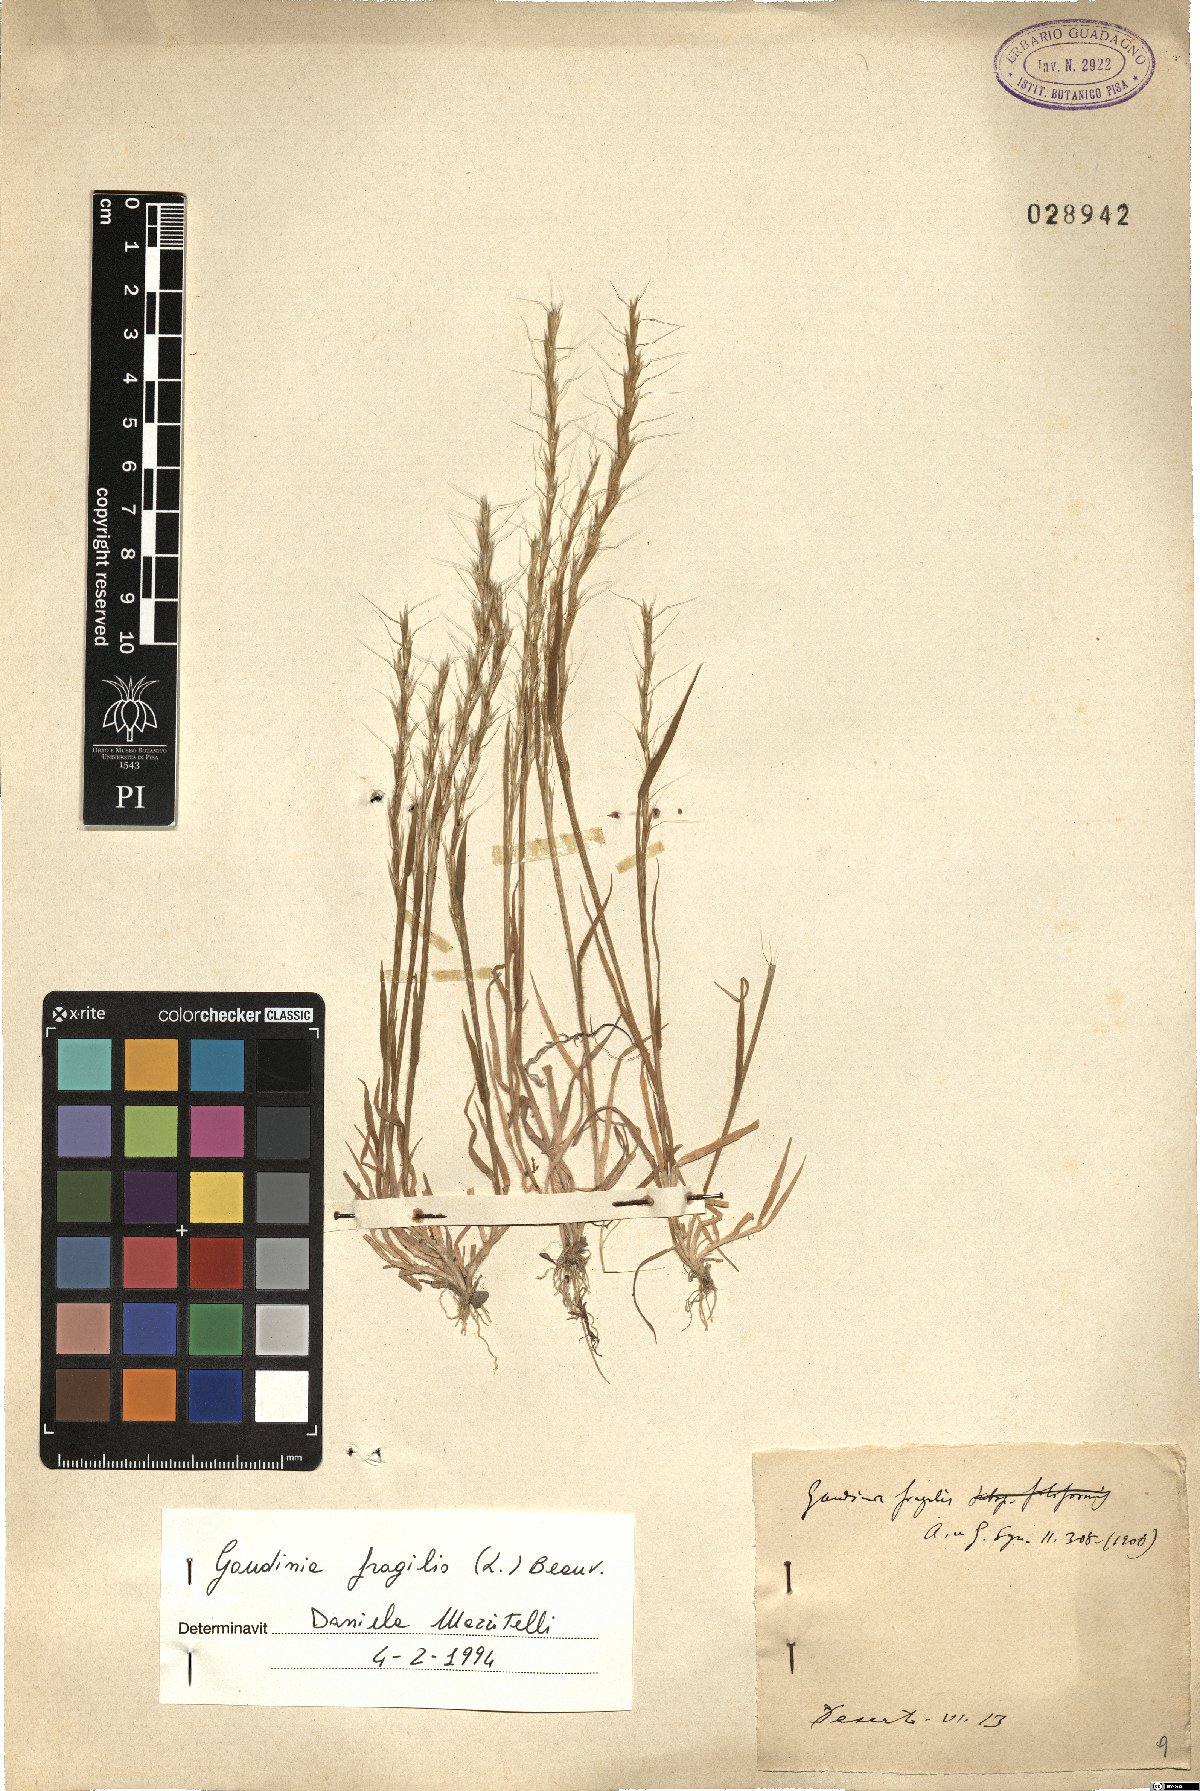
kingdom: Plantae
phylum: Tracheophyta
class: Liliopsida
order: Poales
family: Poaceae
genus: Gaudinia
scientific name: Gaudinia fragilis
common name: French oat-grass
